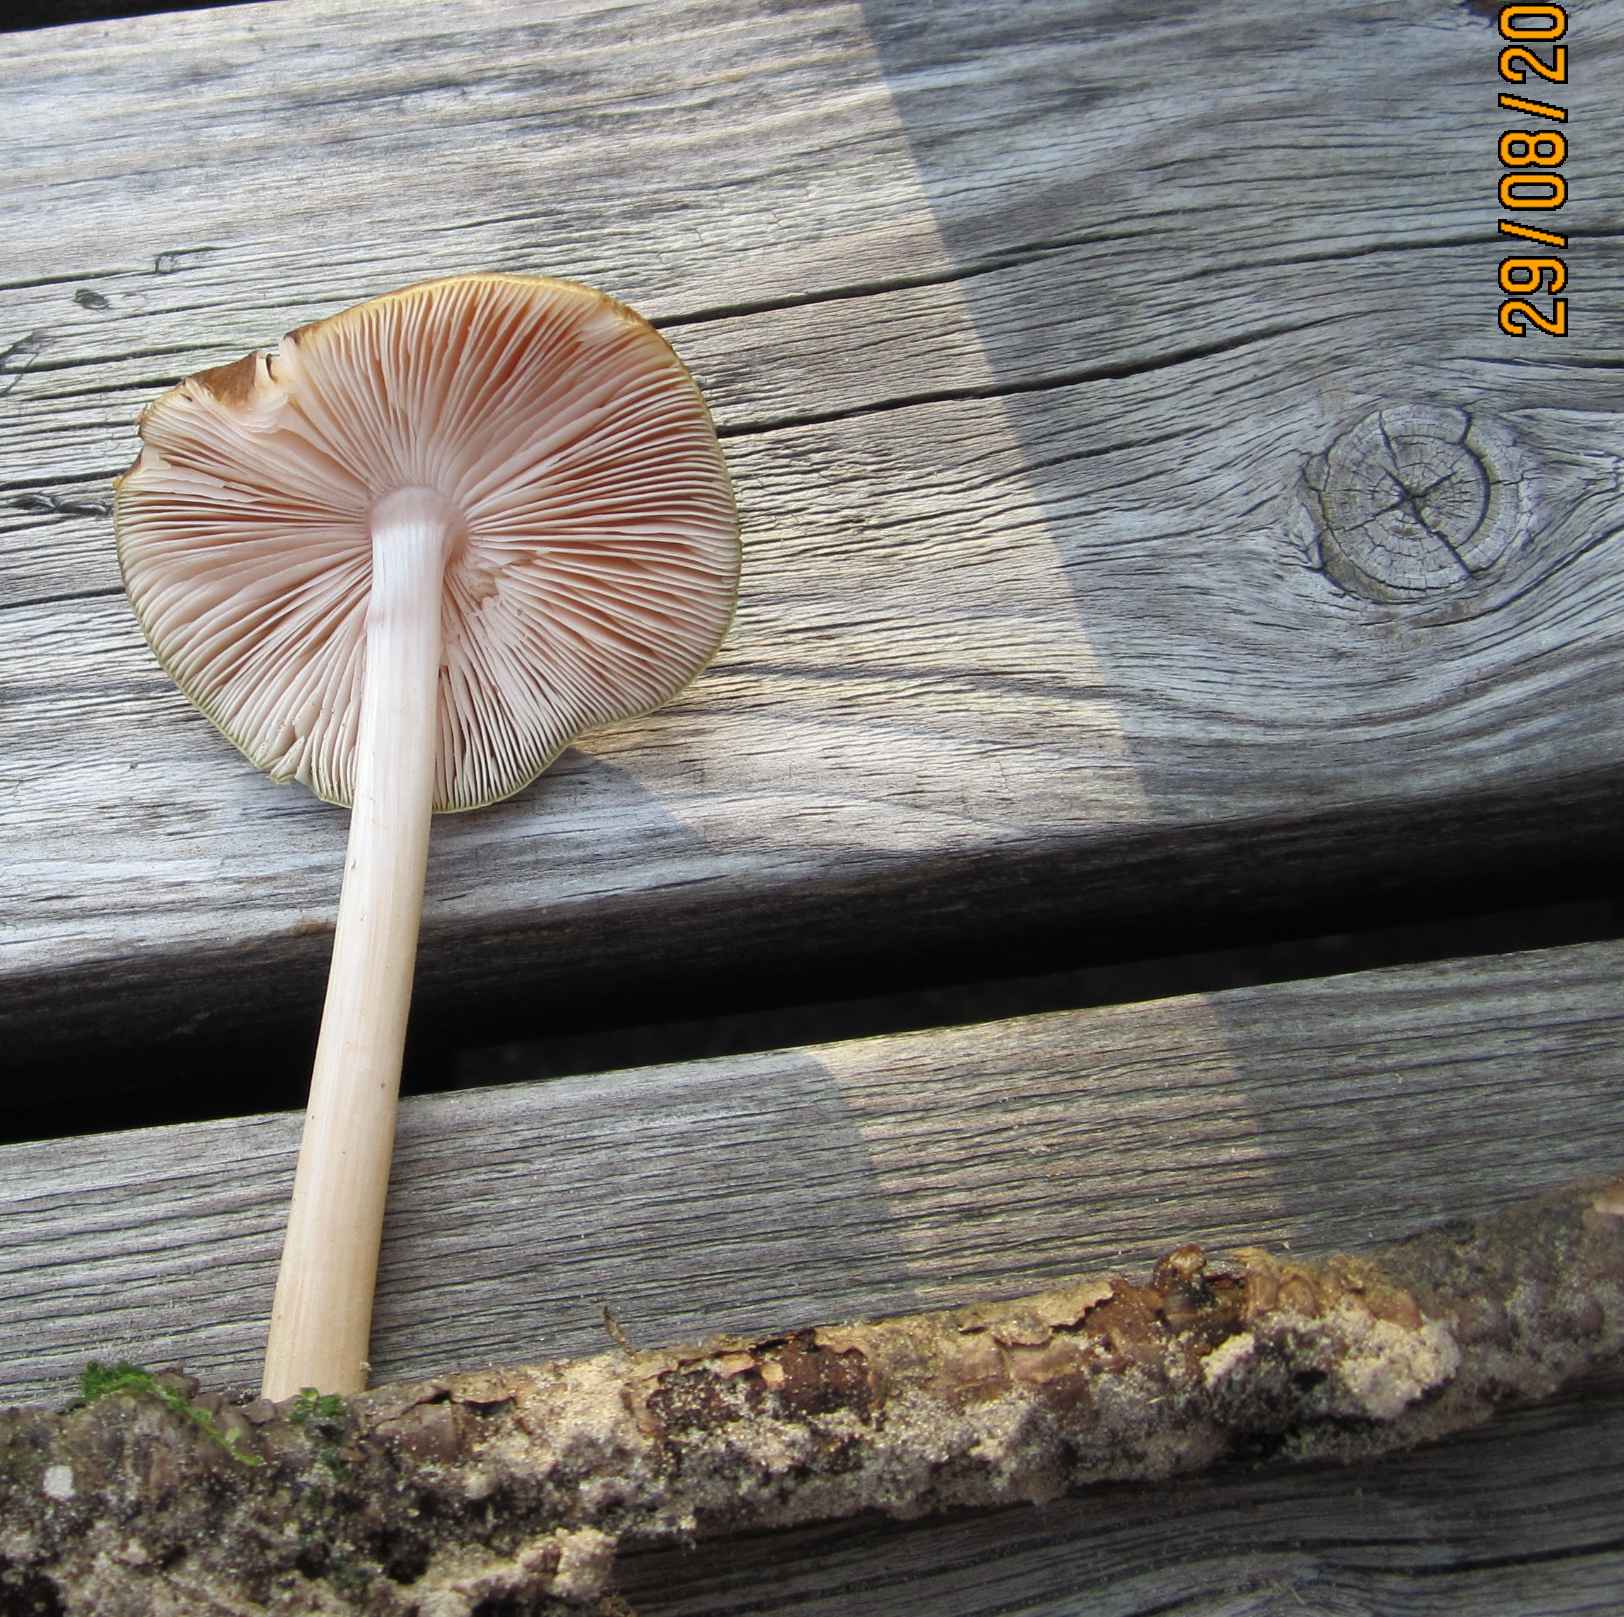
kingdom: Fungi
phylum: Basidiomycota
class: Agaricomycetes
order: Agaricales
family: Pluteaceae
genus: Pluteus
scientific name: Pluteus roseipes
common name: rosafodet skærmhat
